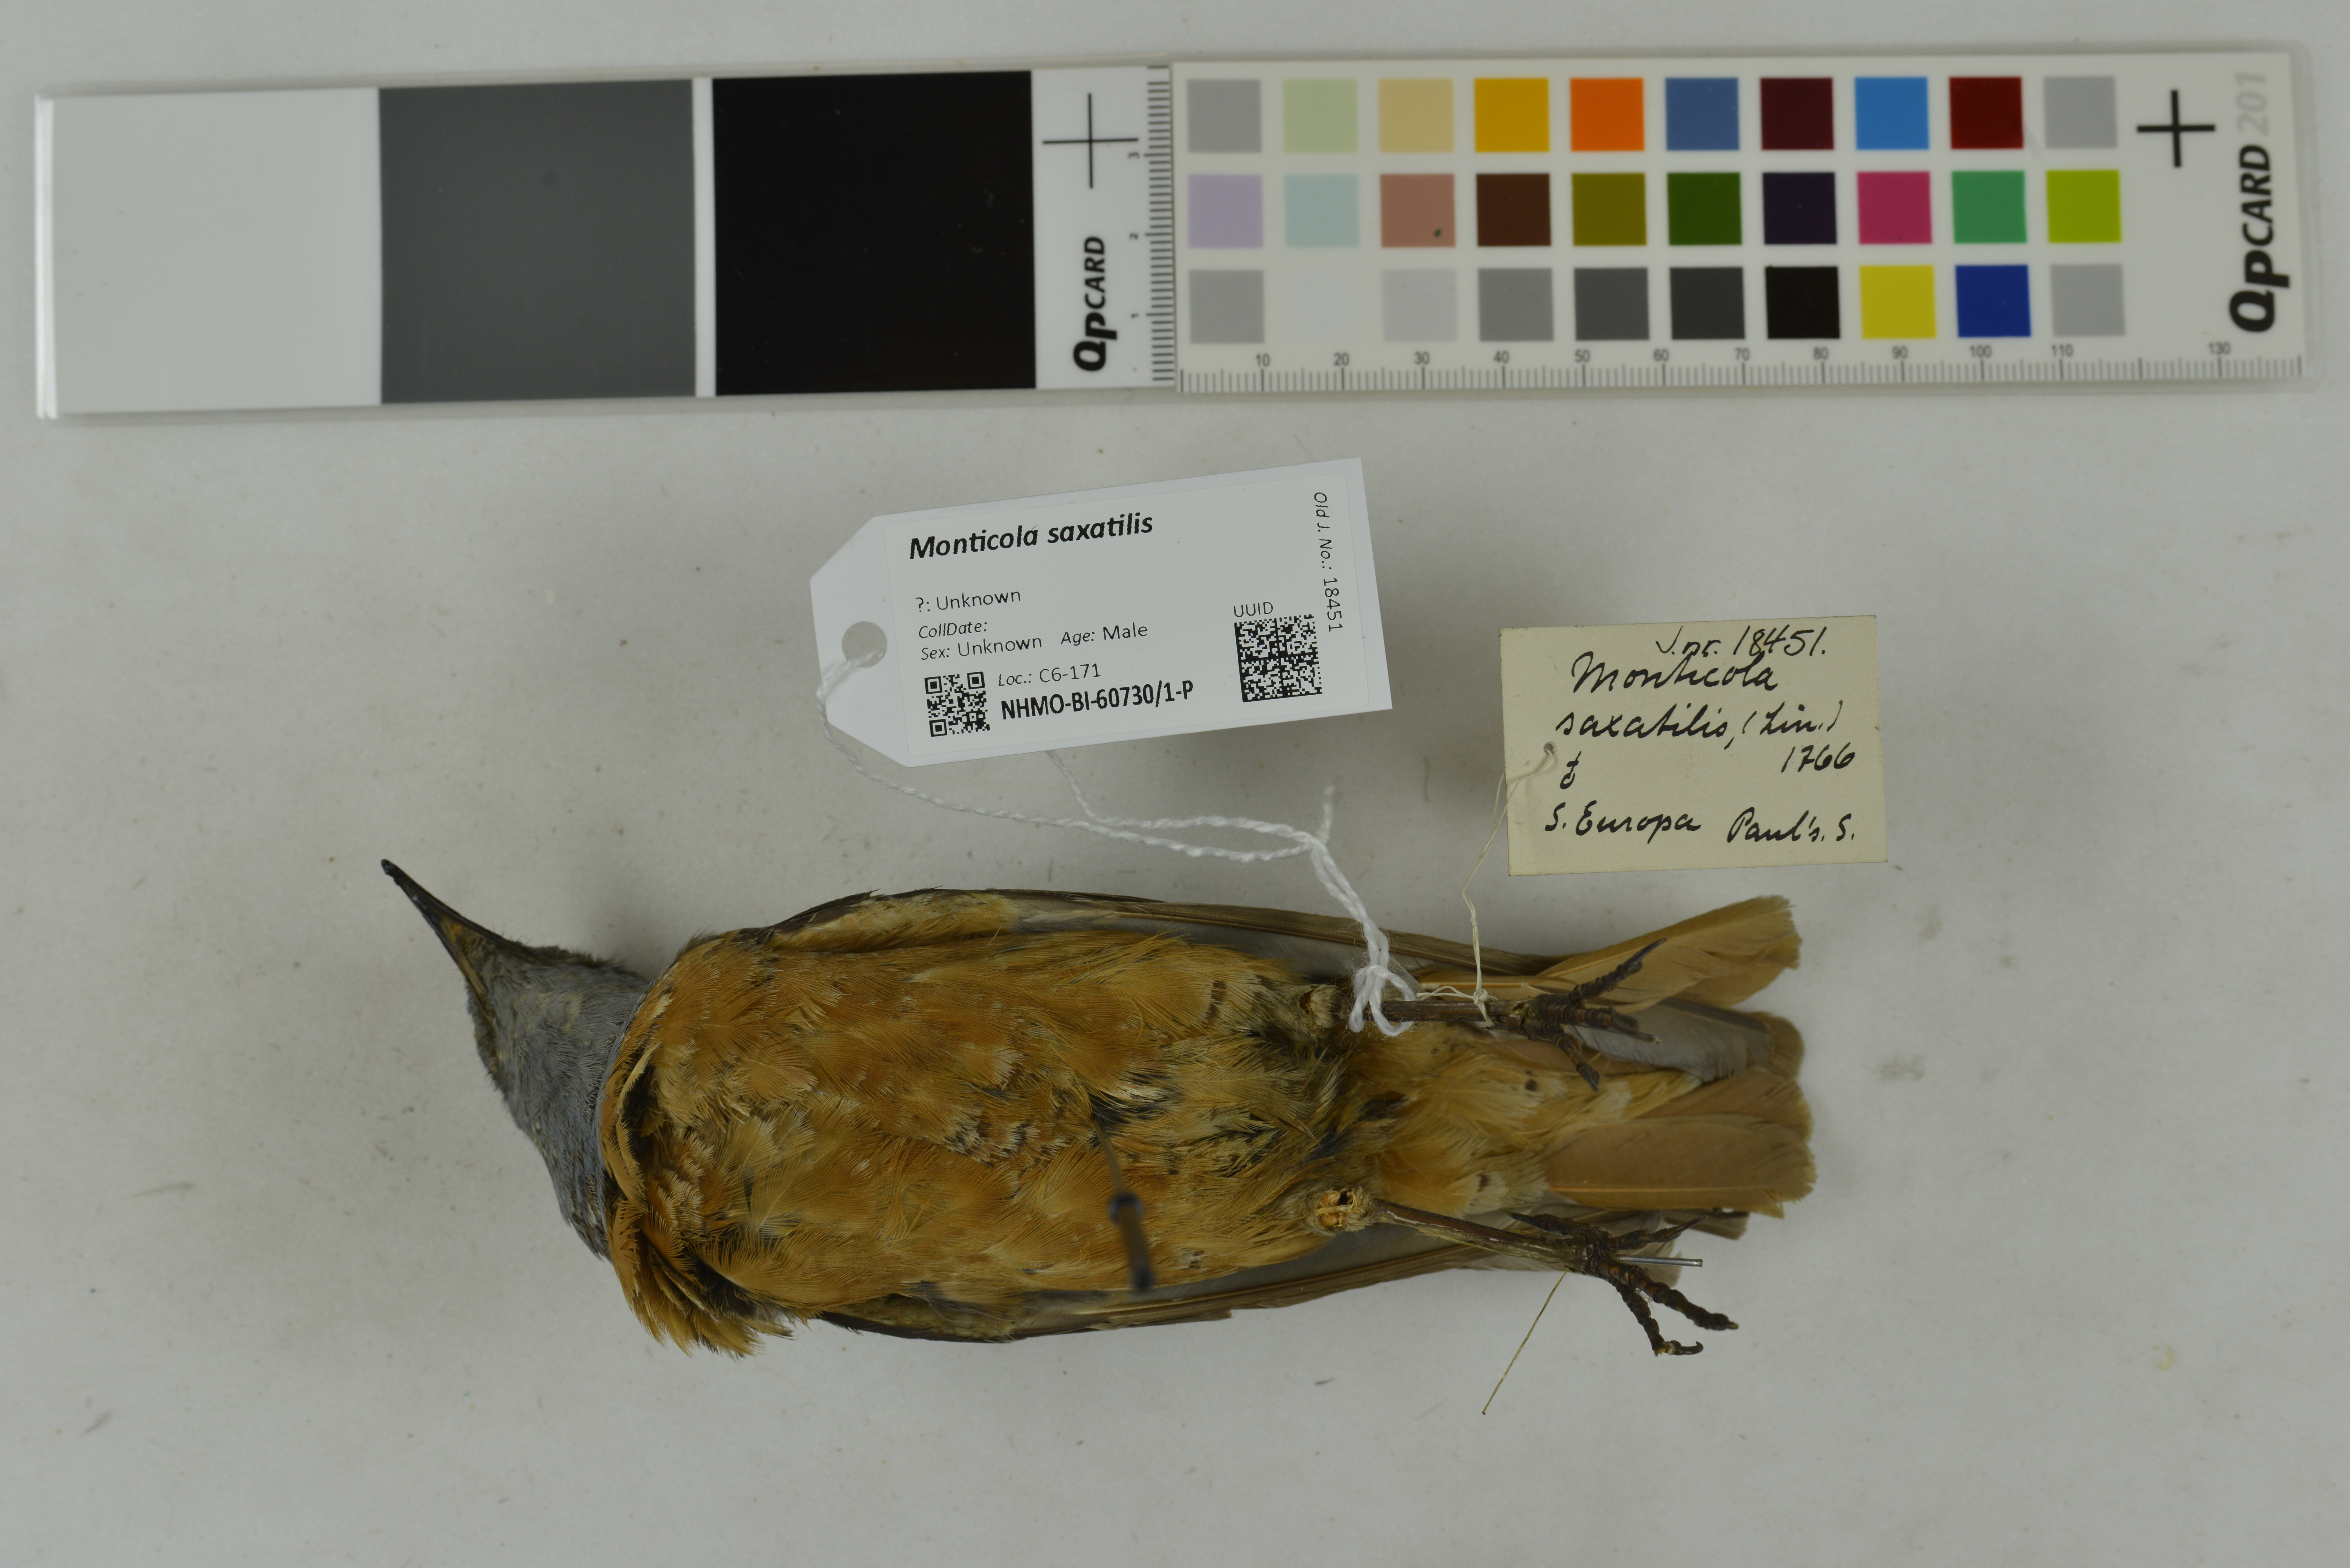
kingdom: Animalia
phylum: Chordata
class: Aves
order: Passeriformes
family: Muscicapidae
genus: Monticola
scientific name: Monticola saxatilis
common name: Rufous-tailed rock thrush
